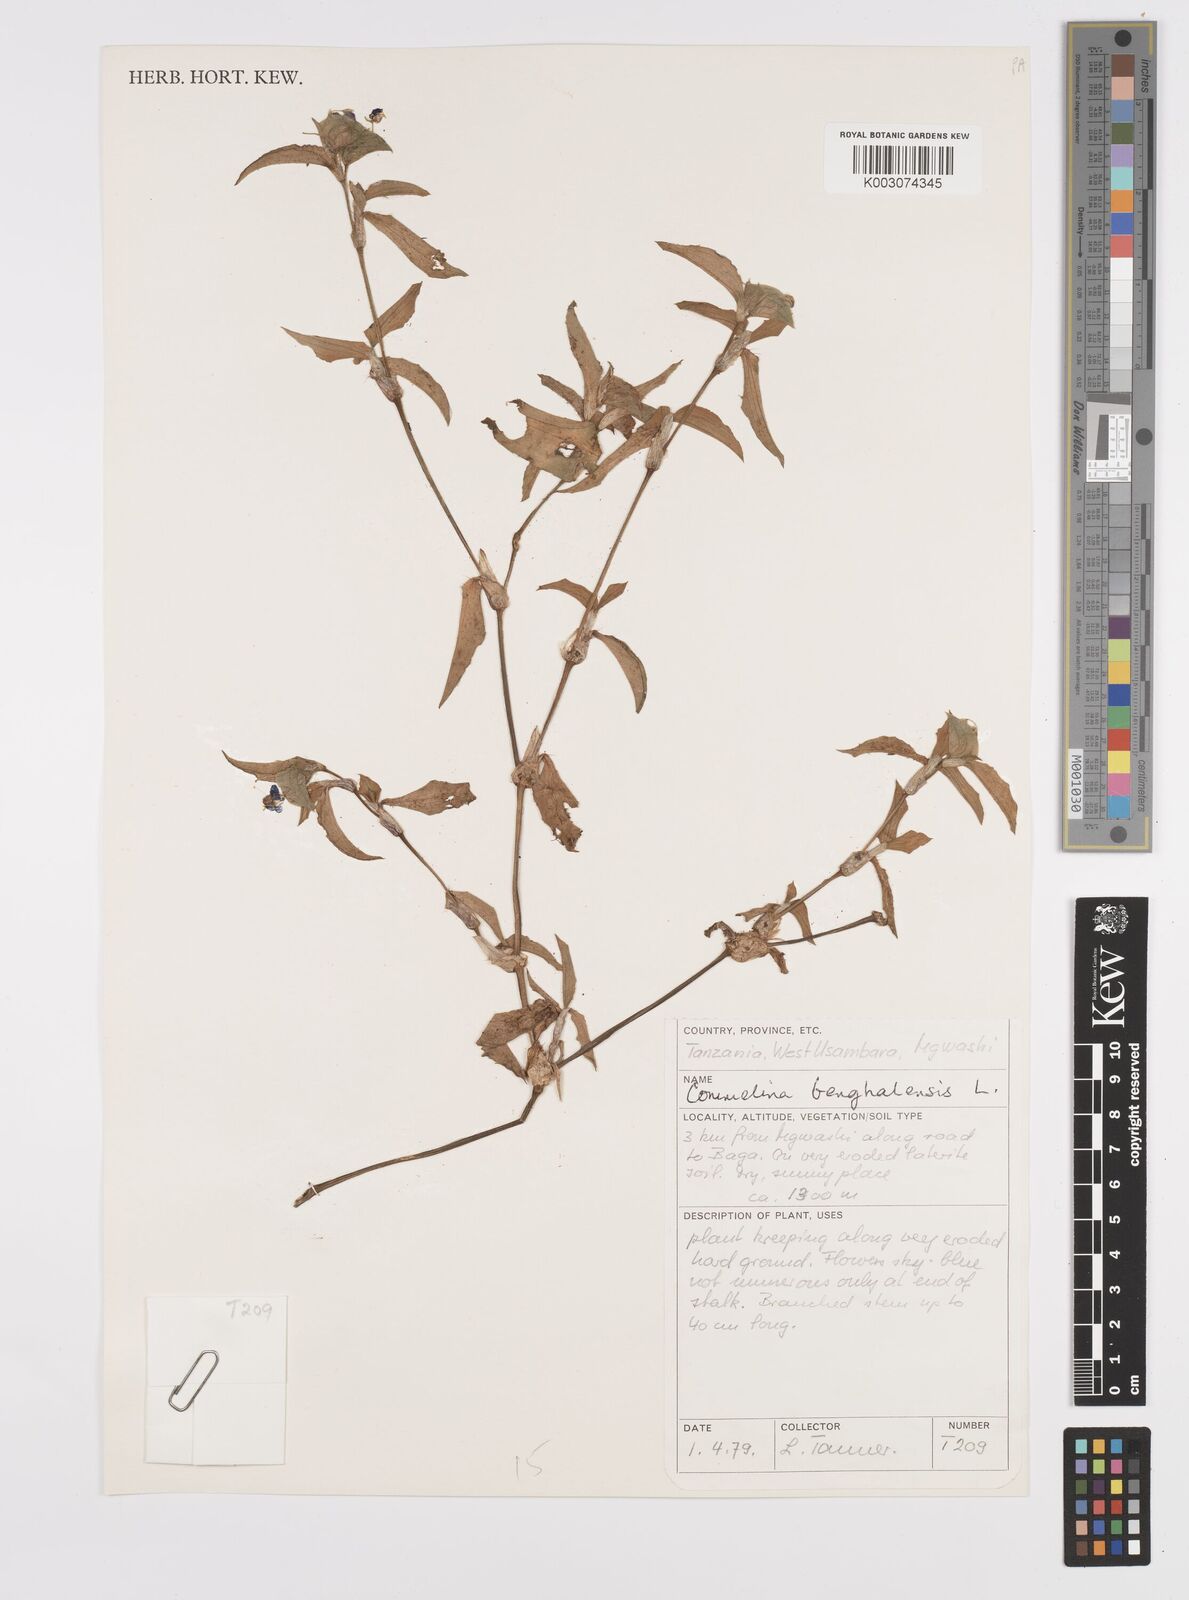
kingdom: Plantae
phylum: Tracheophyta
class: Liliopsida
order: Commelinales
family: Commelinaceae
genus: Commelina
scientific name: Commelina benghalensis
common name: Jio
